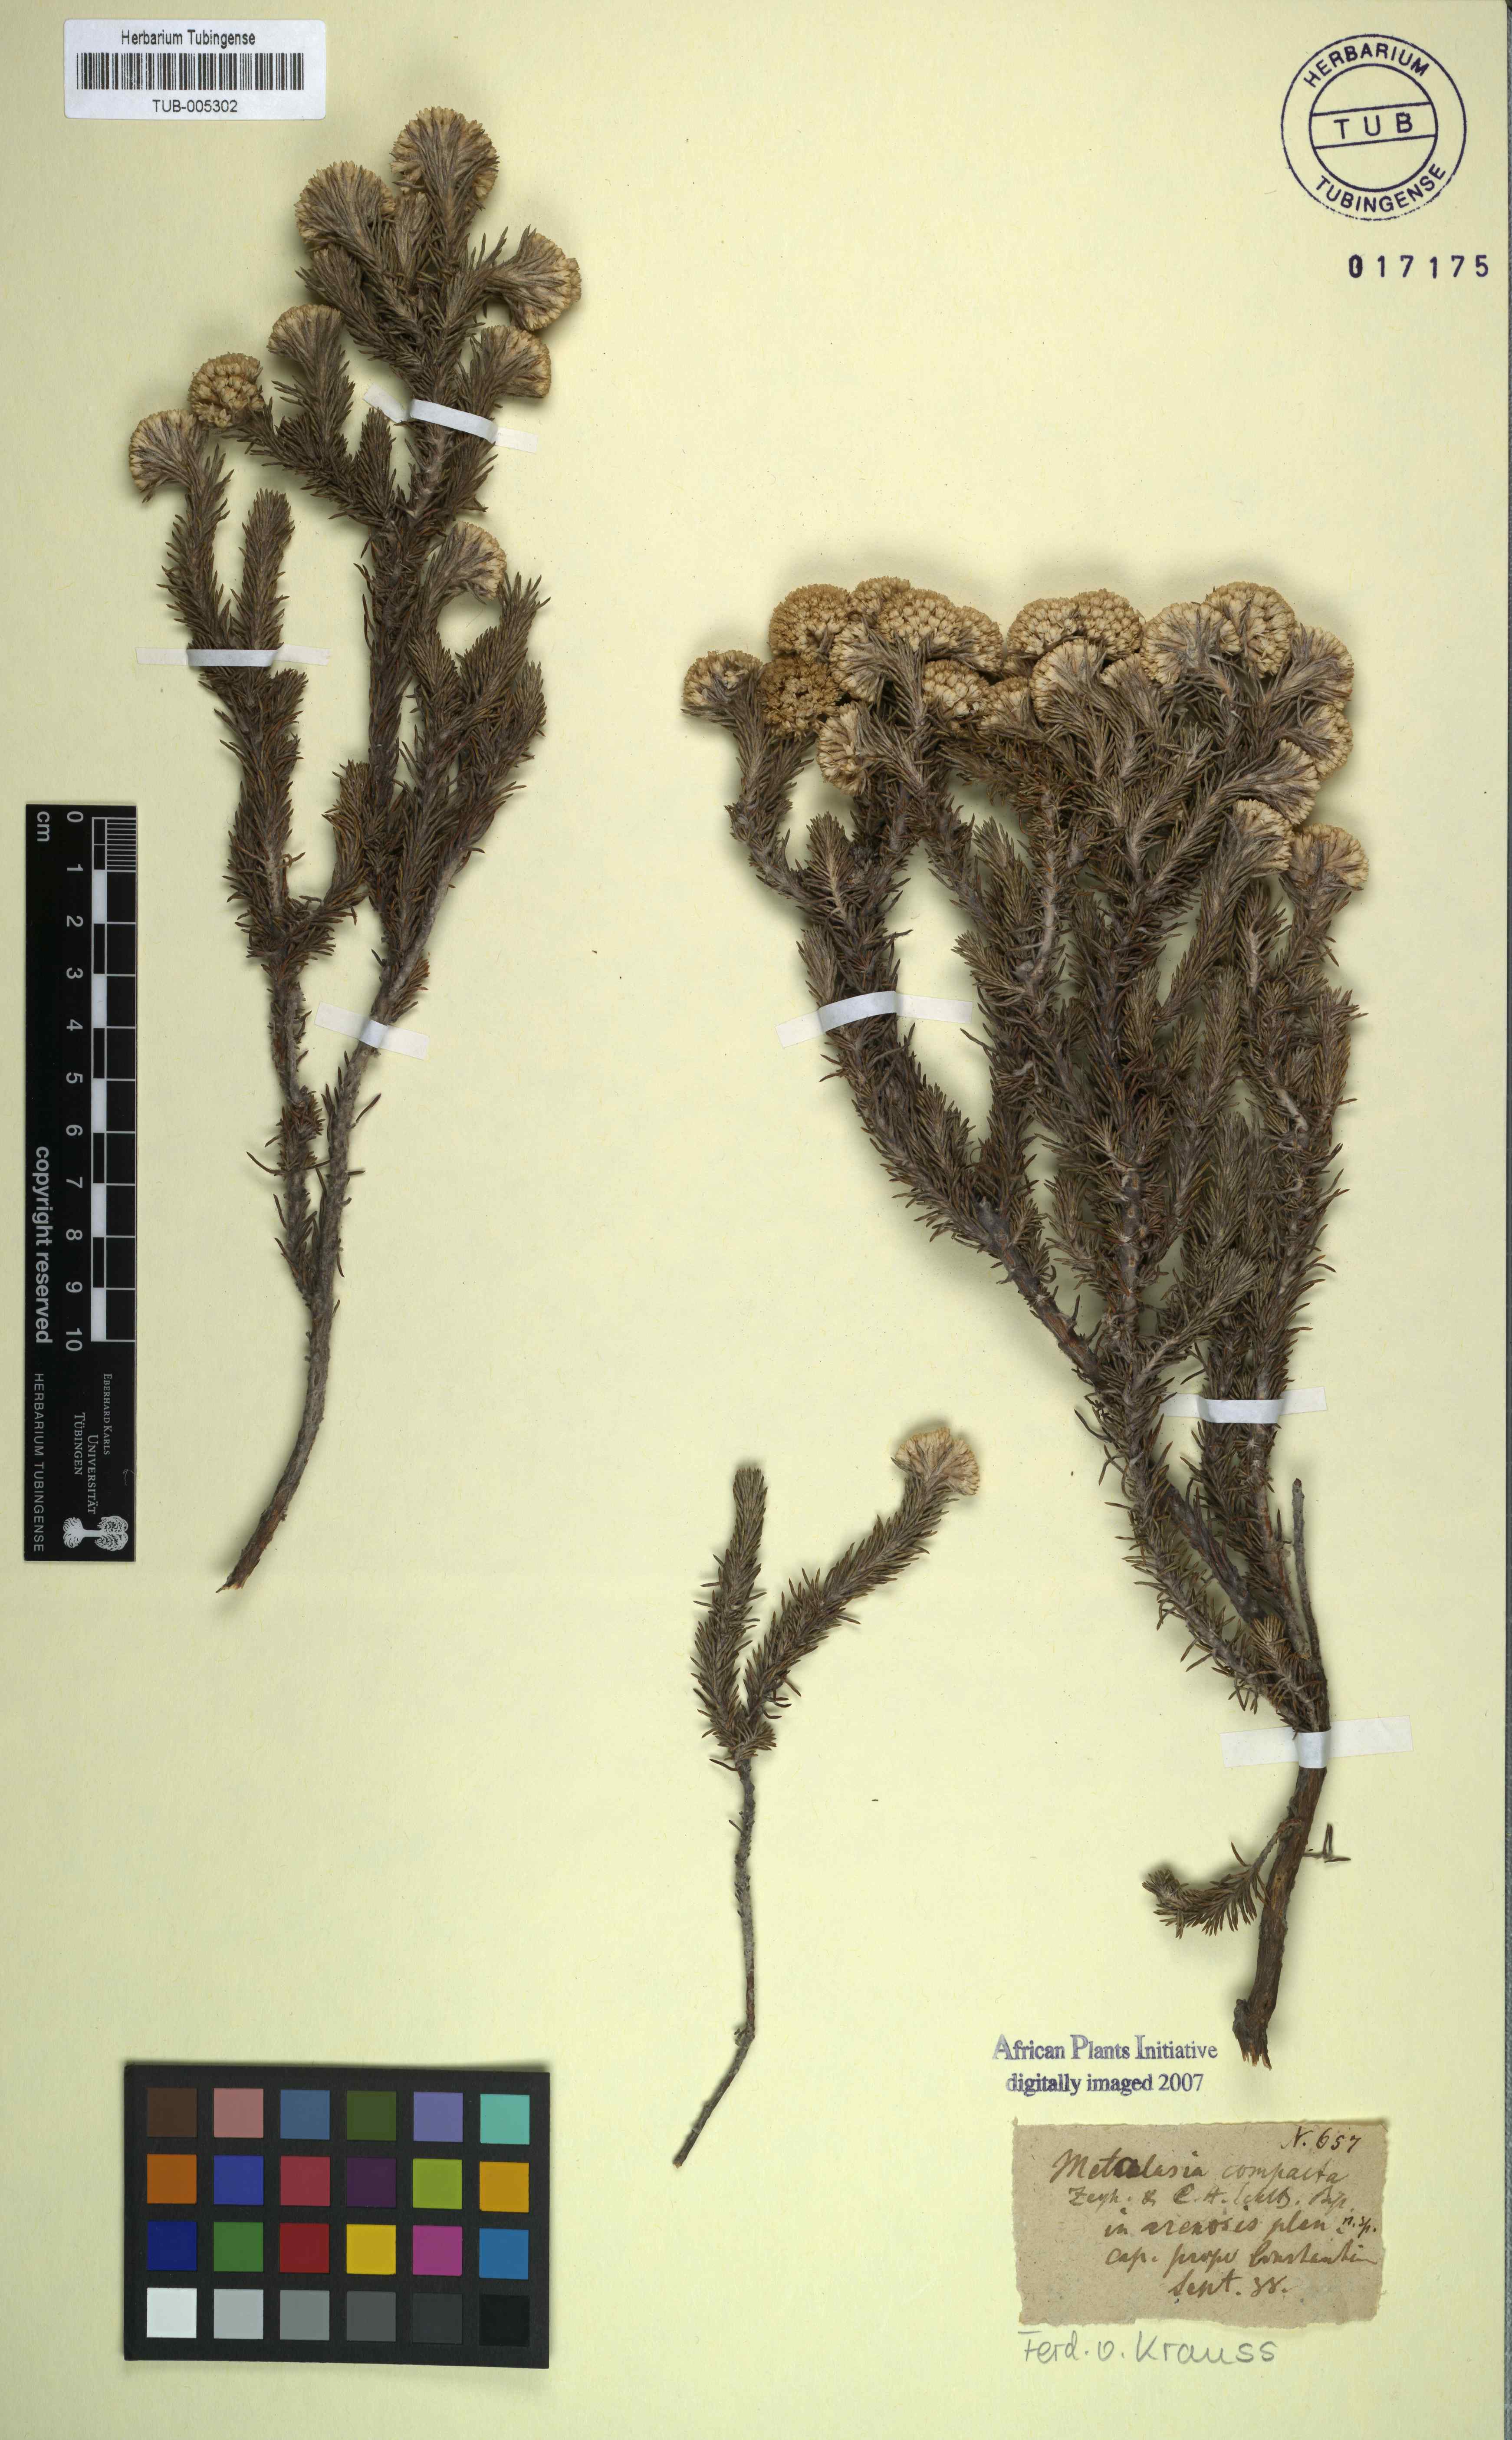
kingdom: Plantae
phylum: Tracheophyta
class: Magnoliopsida
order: Asterales
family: Asteraceae
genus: Metalasia
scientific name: Metalasia compacta
